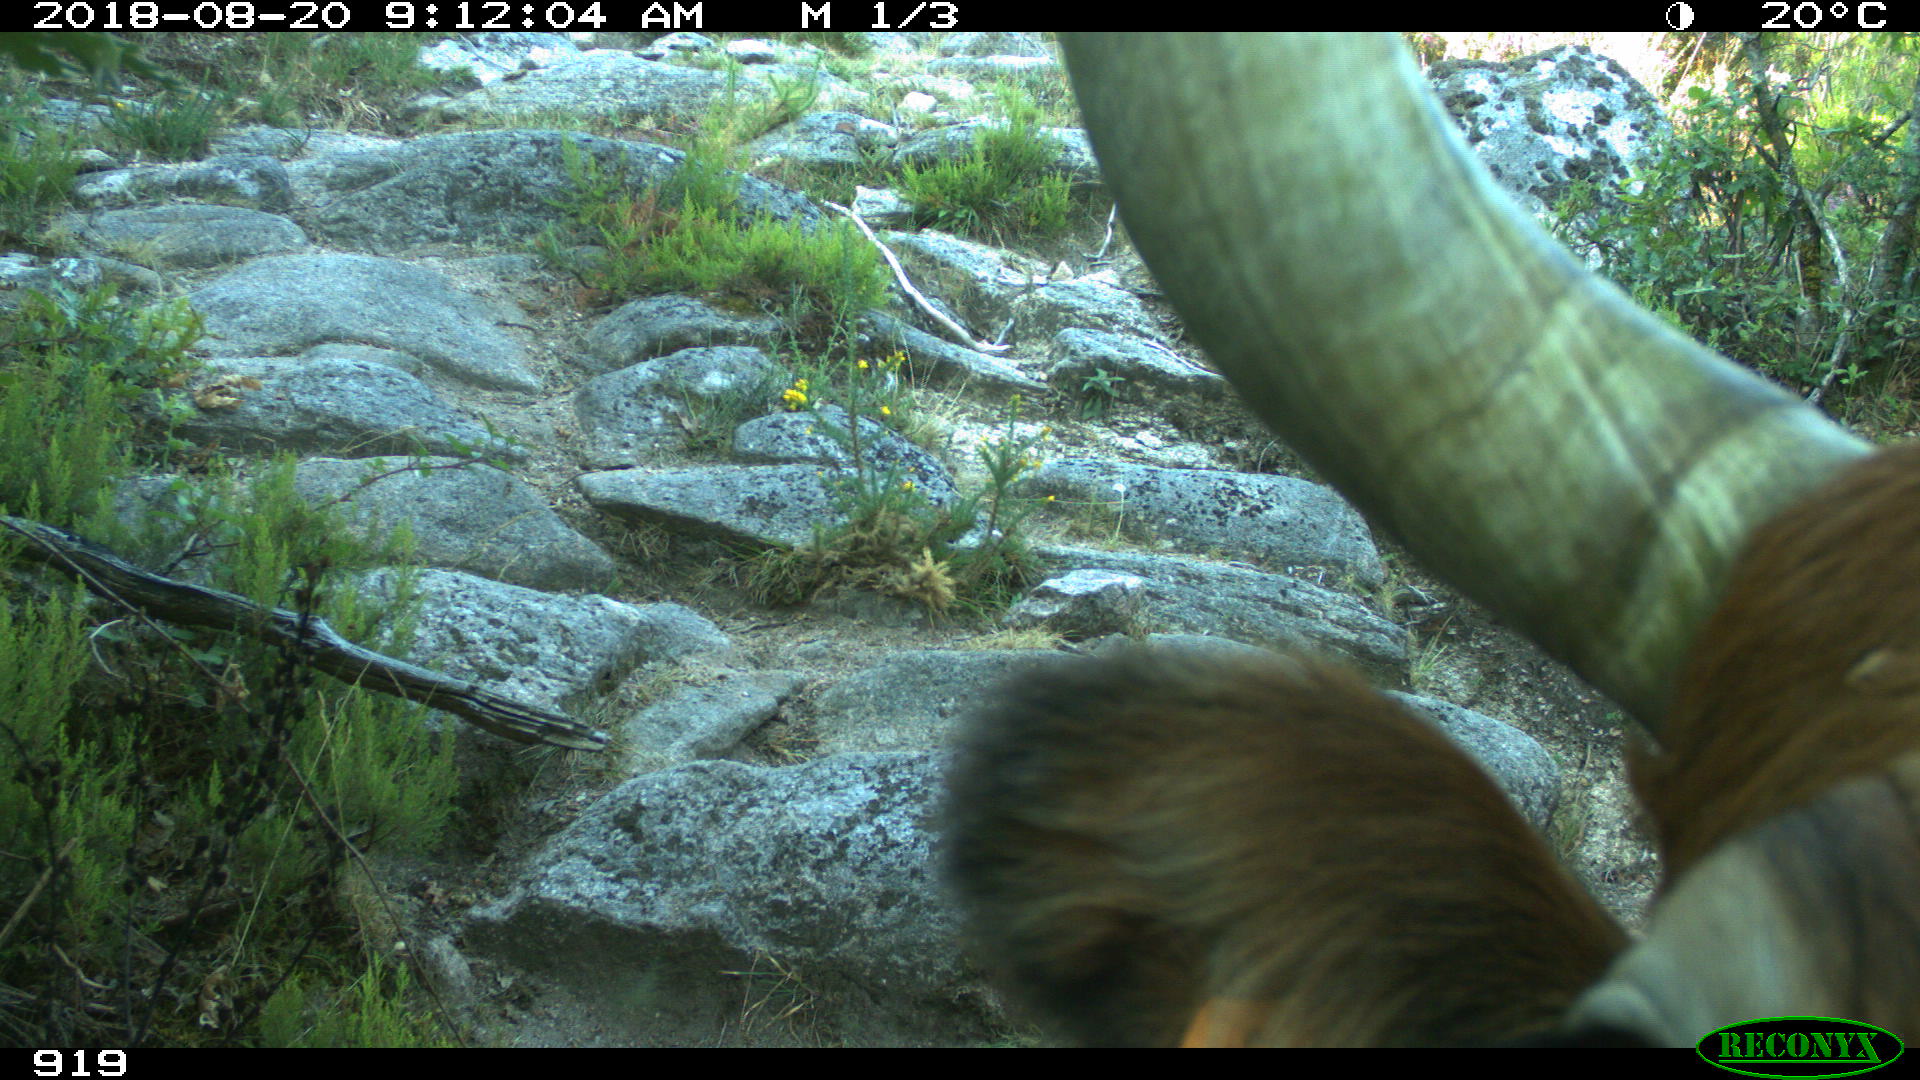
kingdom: Animalia
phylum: Chordata
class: Mammalia
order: Artiodactyla
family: Bovidae
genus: Bos
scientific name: Bos taurus
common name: Domesticated cattle
